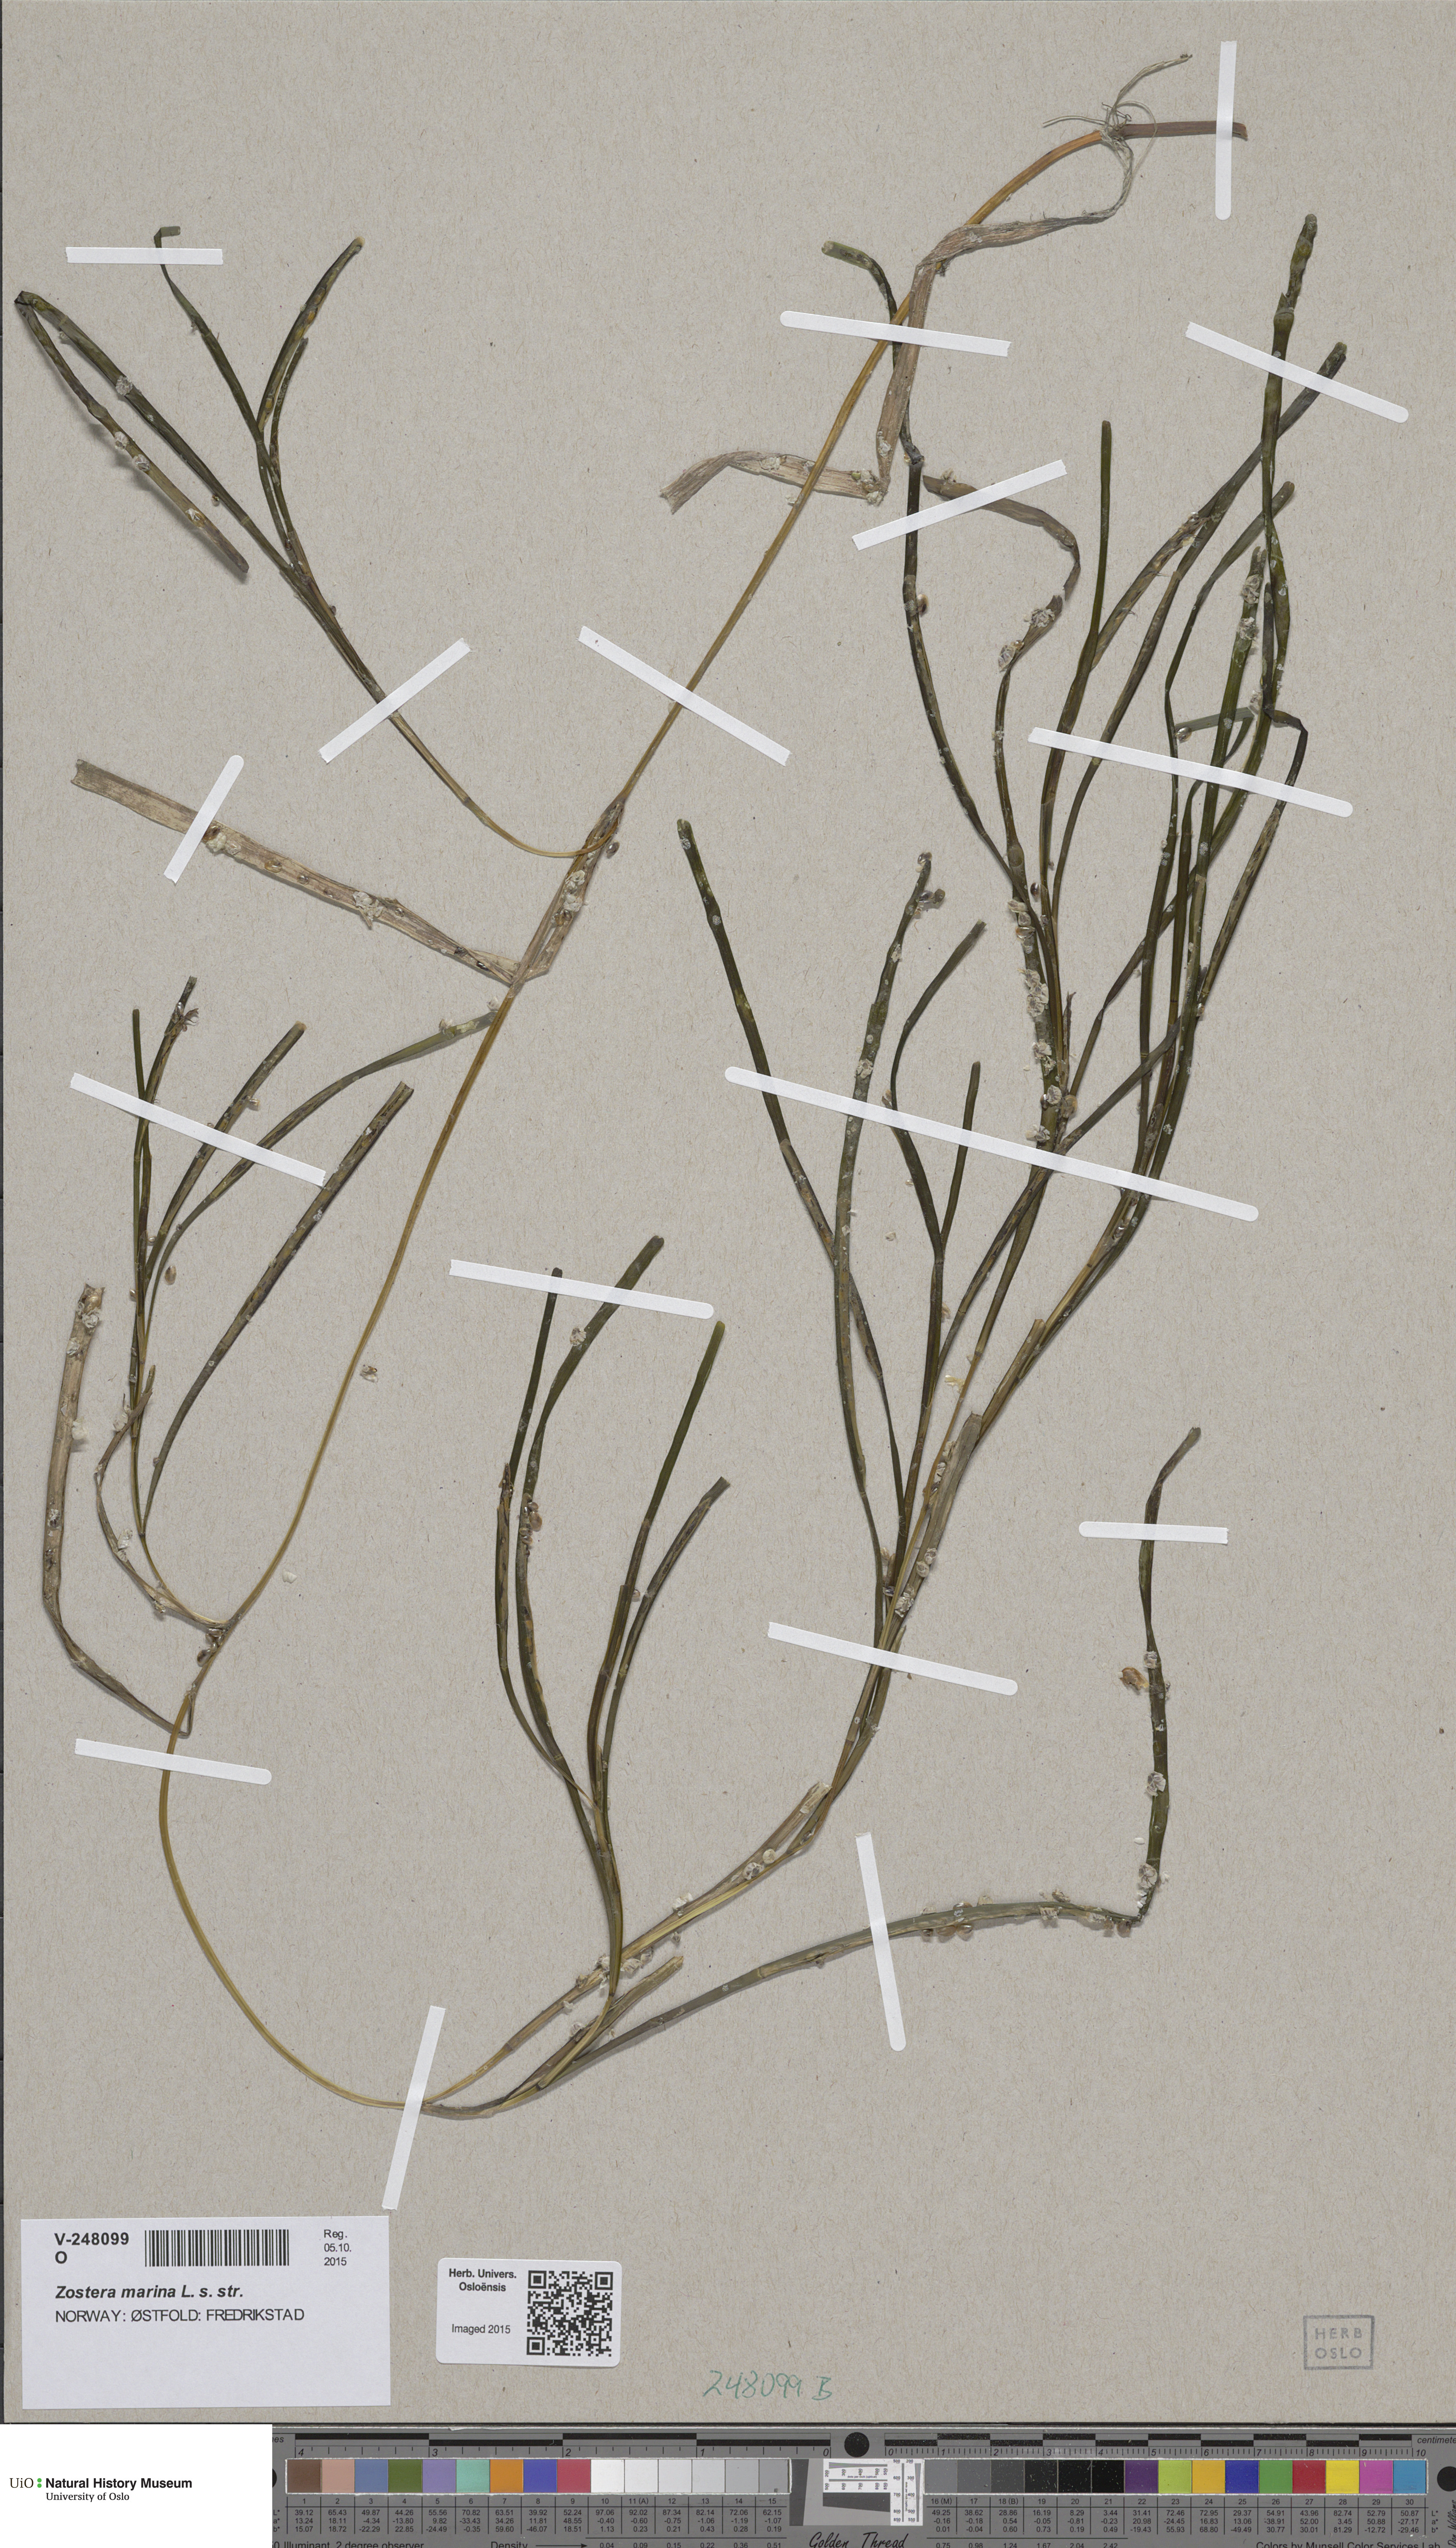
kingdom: Plantae
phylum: Tracheophyta
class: Liliopsida
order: Alismatales
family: Zosteraceae
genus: Zostera
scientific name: Zostera marina
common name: Eelgrass
